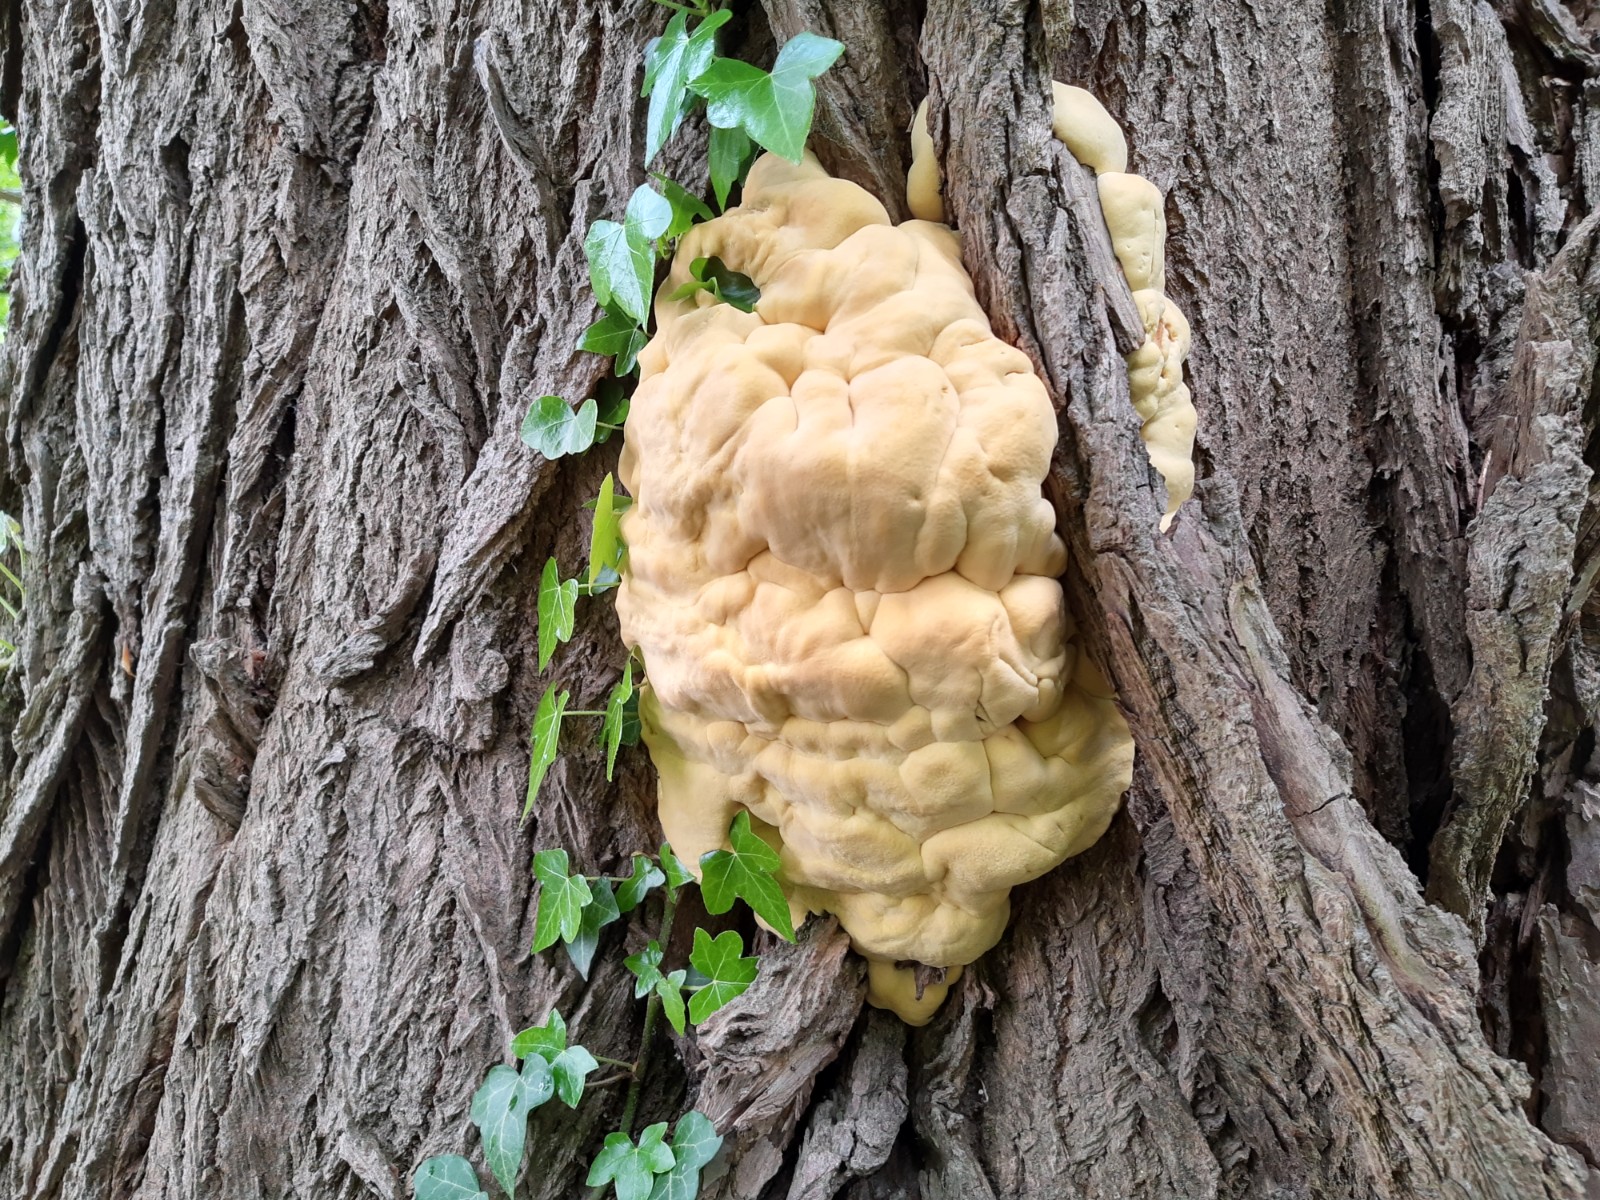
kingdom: Fungi
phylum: Basidiomycota
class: Agaricomycetes
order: Polyporales
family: Laetiporaceae
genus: Laetiporus
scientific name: Laetiporus sulphureus
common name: svovlporesvamp
